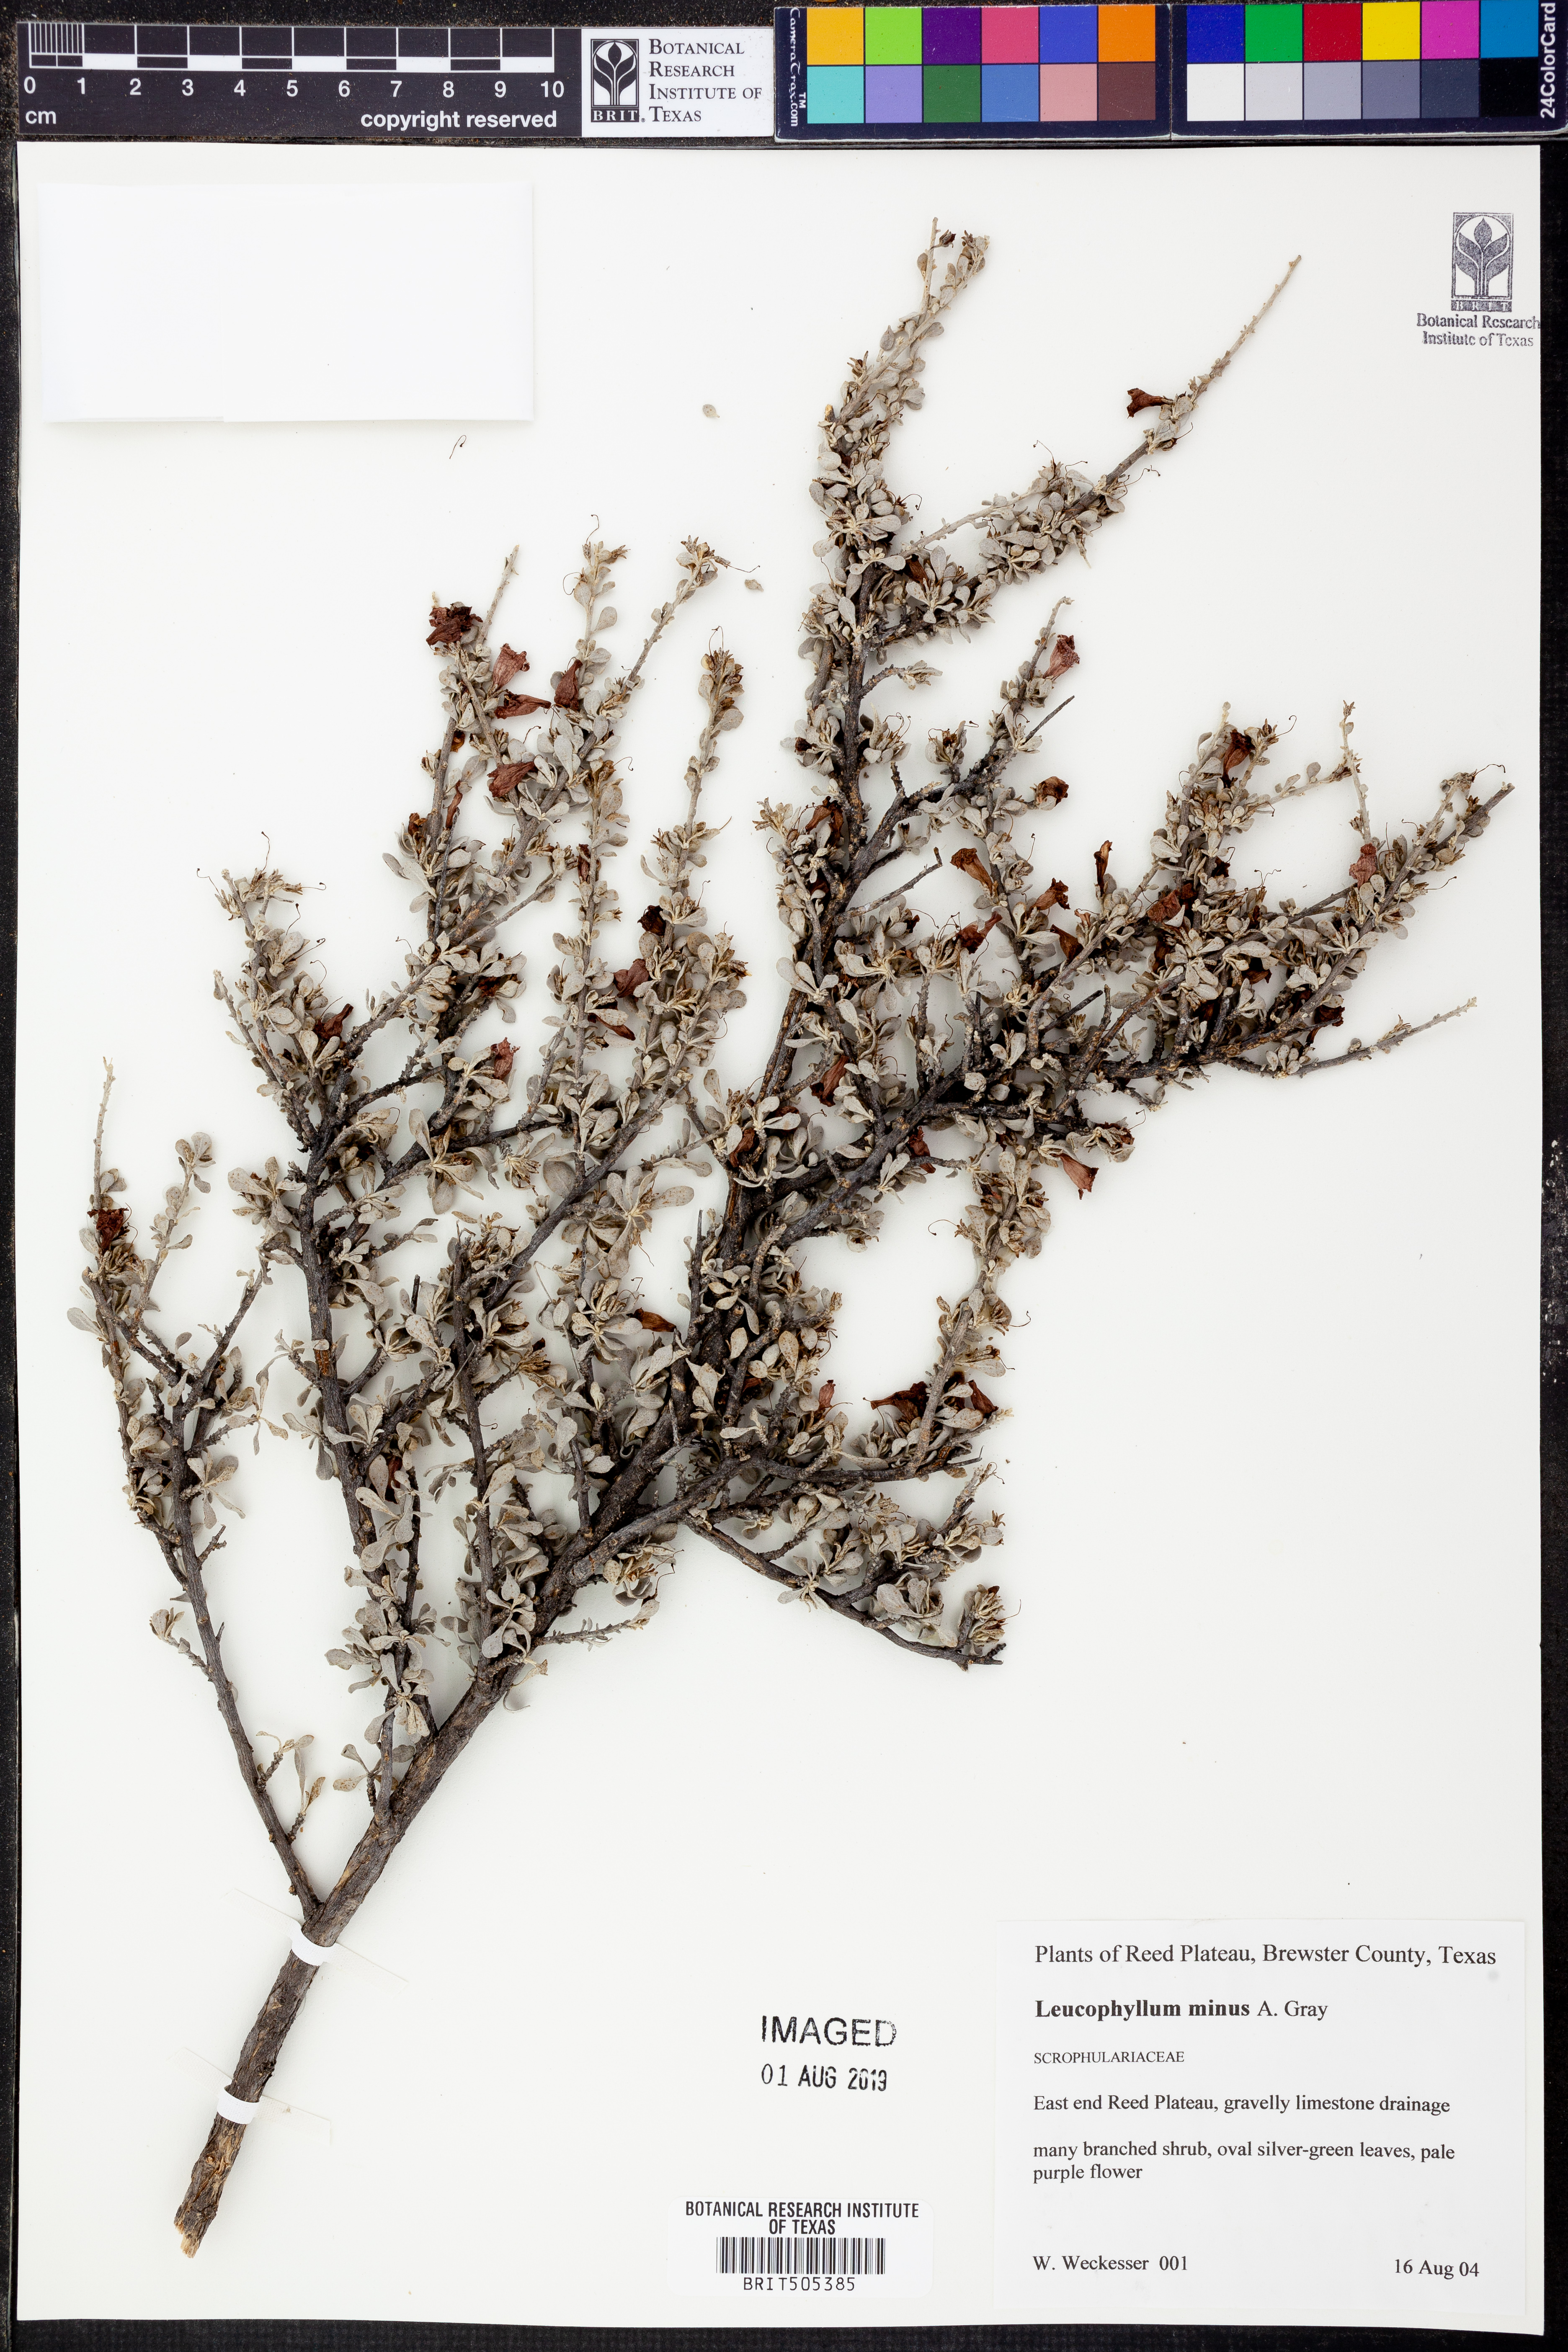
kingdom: Plantae
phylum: Tracheophyta
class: Magnoliopsida
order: Lamiales
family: Scrophulariaceae
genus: Leucophyllum
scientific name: Leucophyllum minus
